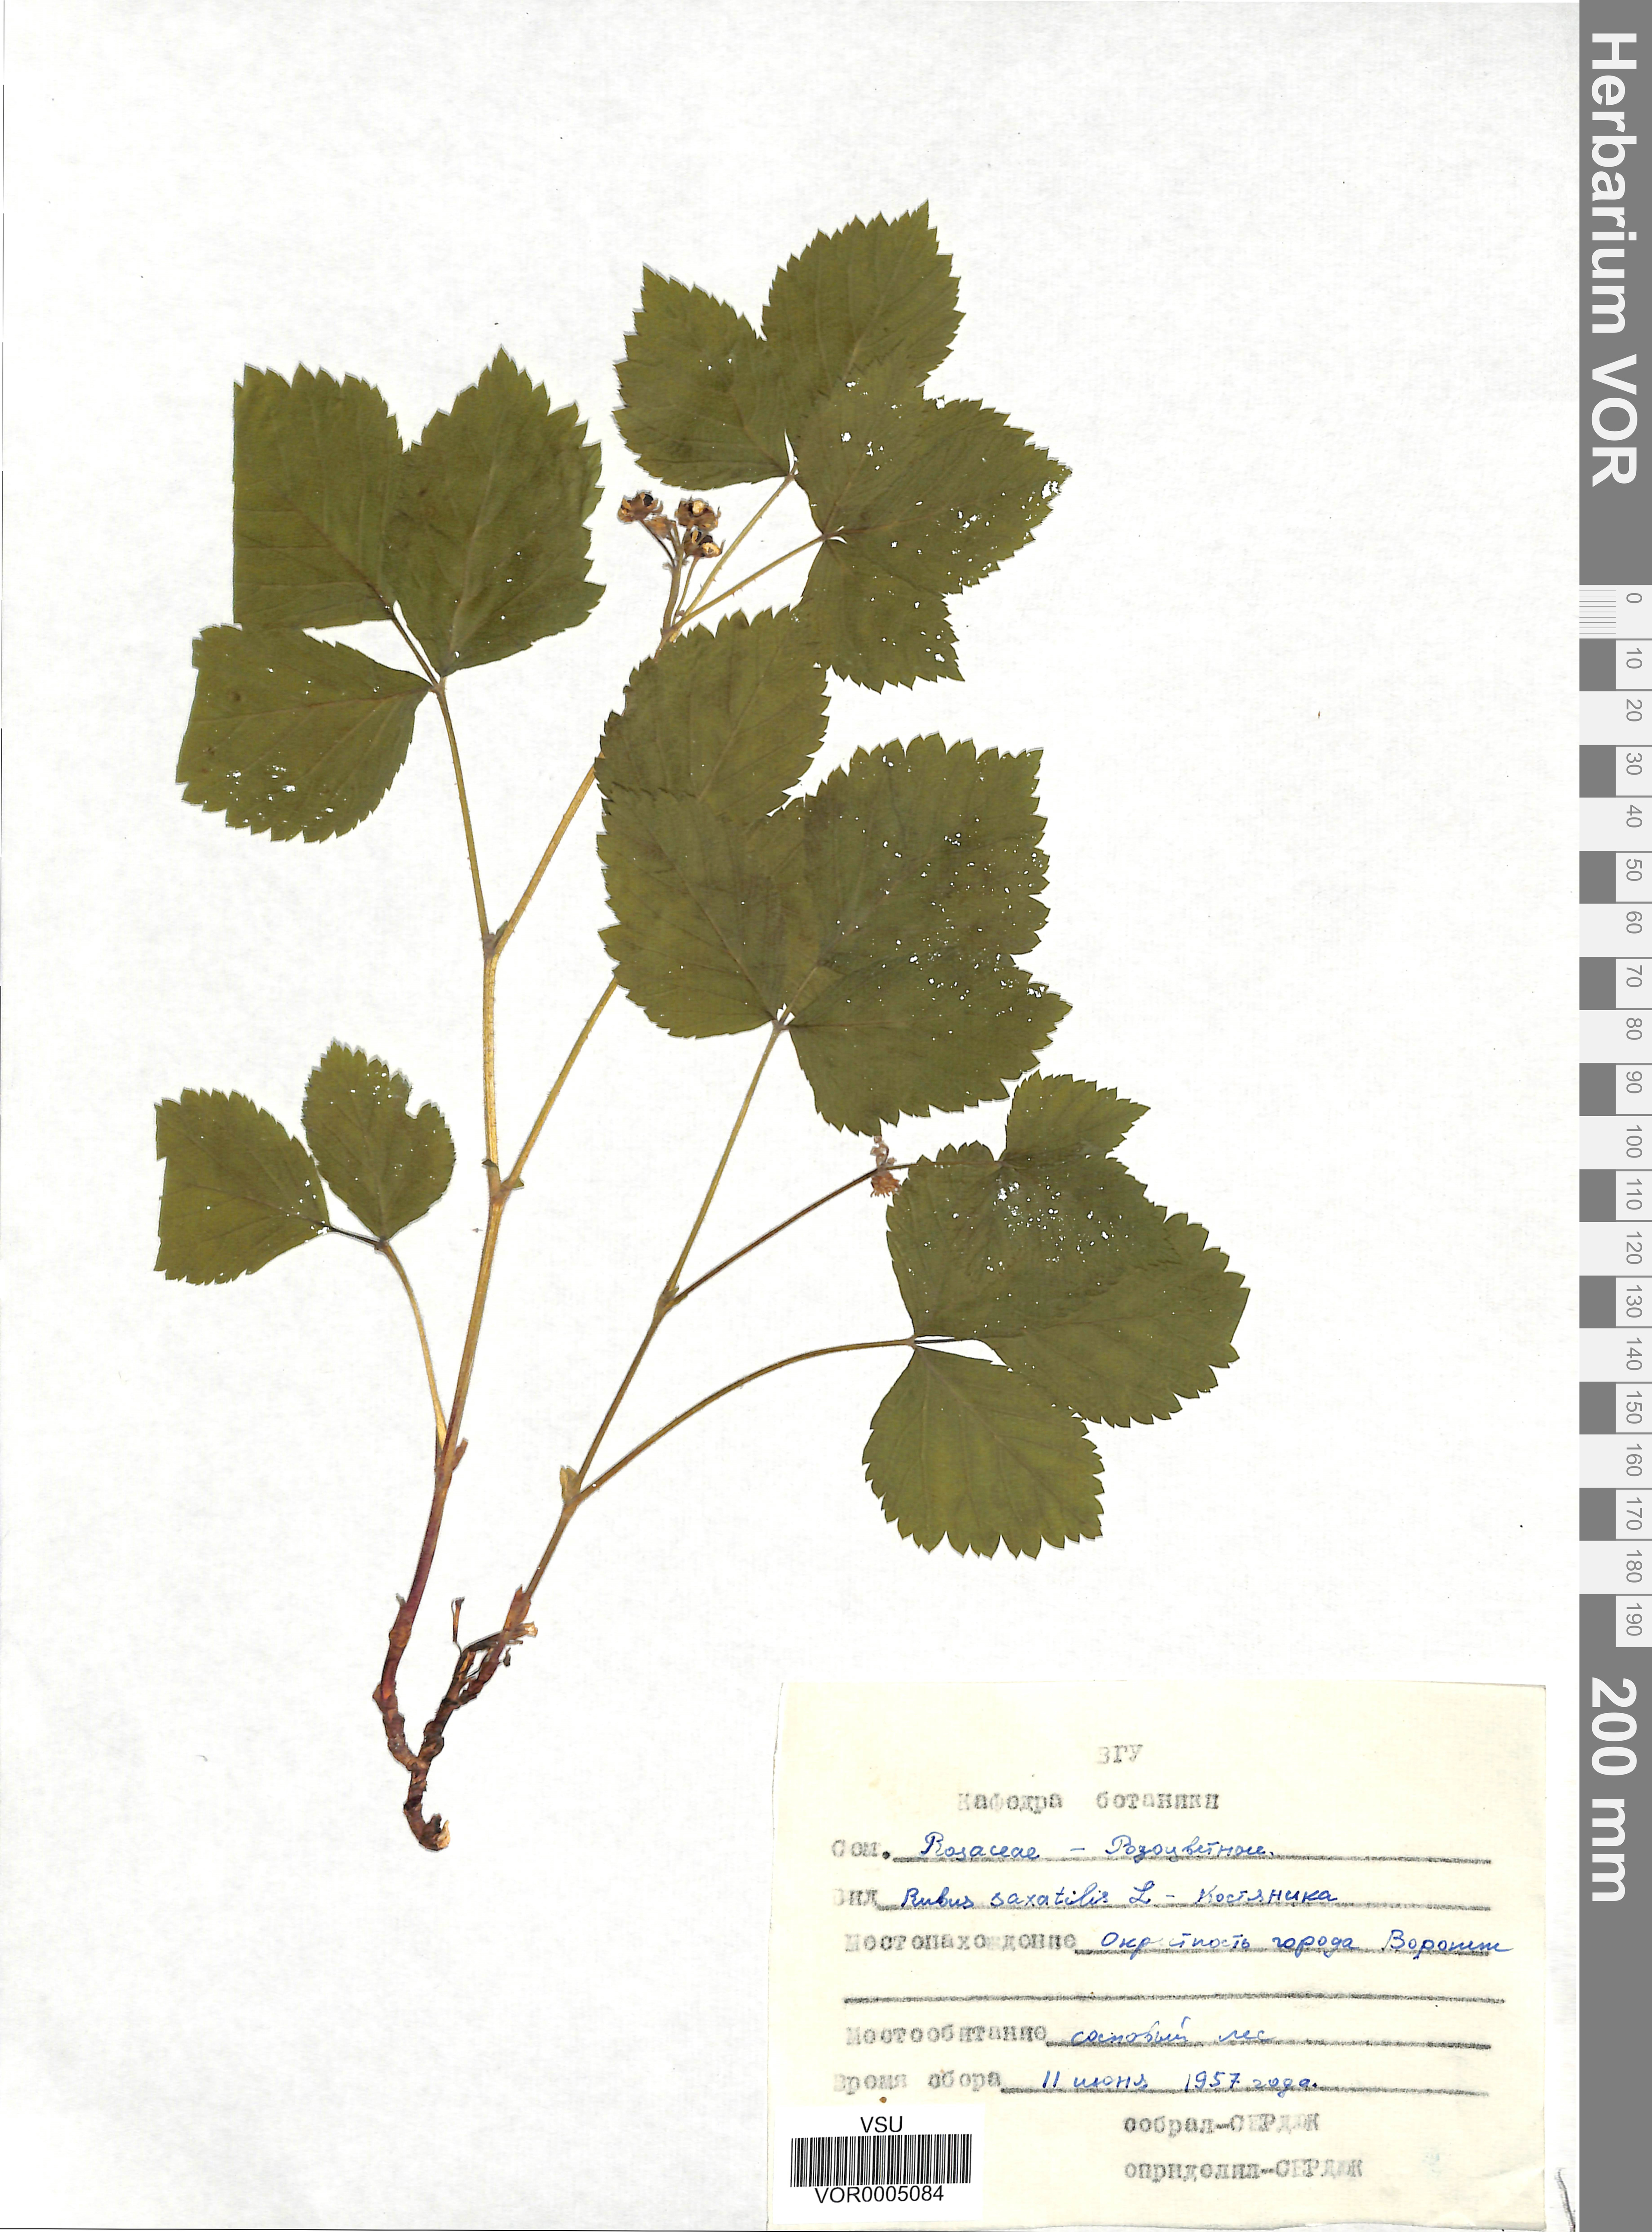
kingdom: Plantae
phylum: Tracheophyta
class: Magnoliopsida
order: Rosales
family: Rosaceae
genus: Rubus
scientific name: Rubus saxatilis
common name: Stone bramble
